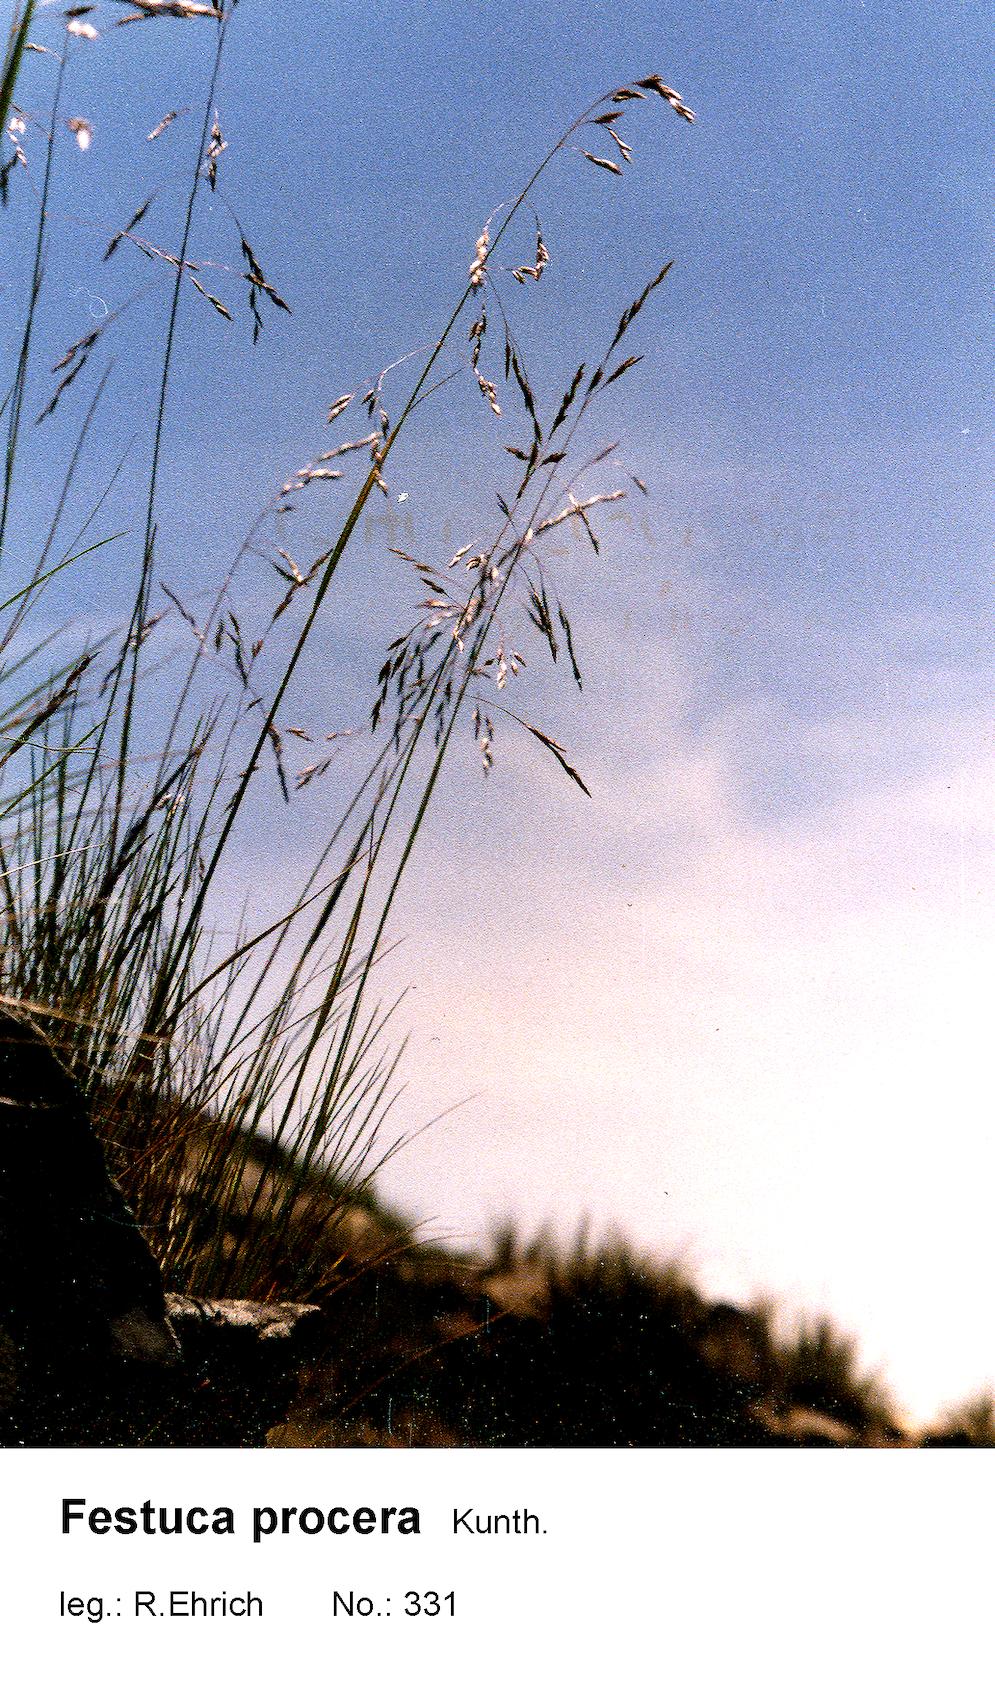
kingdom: Plantae
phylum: Tracheophyta
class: Liliopsida
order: Poales
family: Poaceae
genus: Festuca
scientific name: Festuca procera
